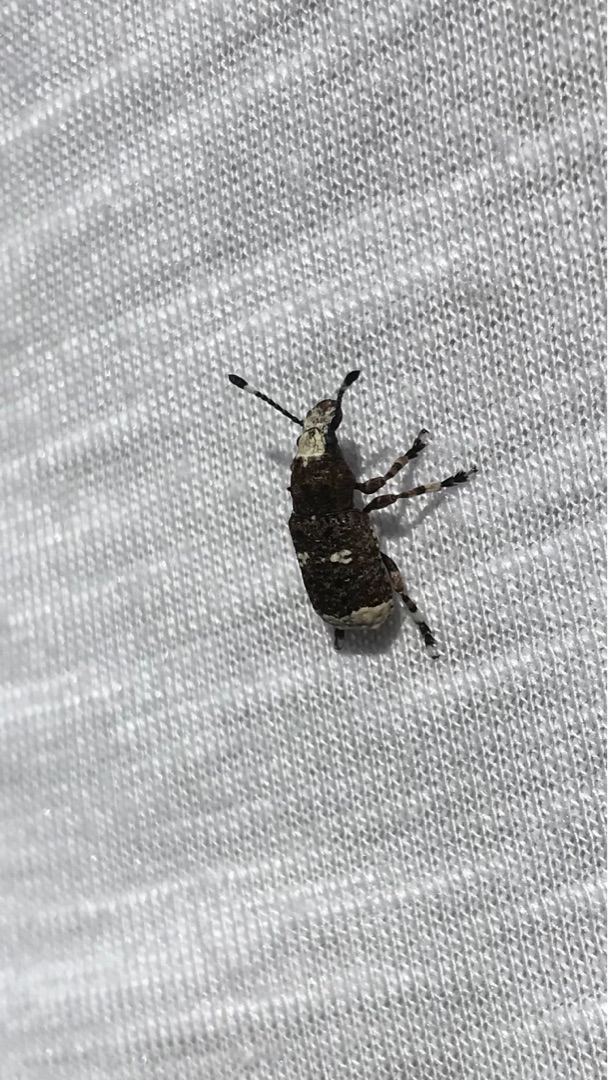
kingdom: Animalia
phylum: Arthropoda
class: Insecta
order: Coleoptera
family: Anthribidae
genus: Platystomos
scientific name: Platystomos albinus
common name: Hvidhovedet bredsnudebille
